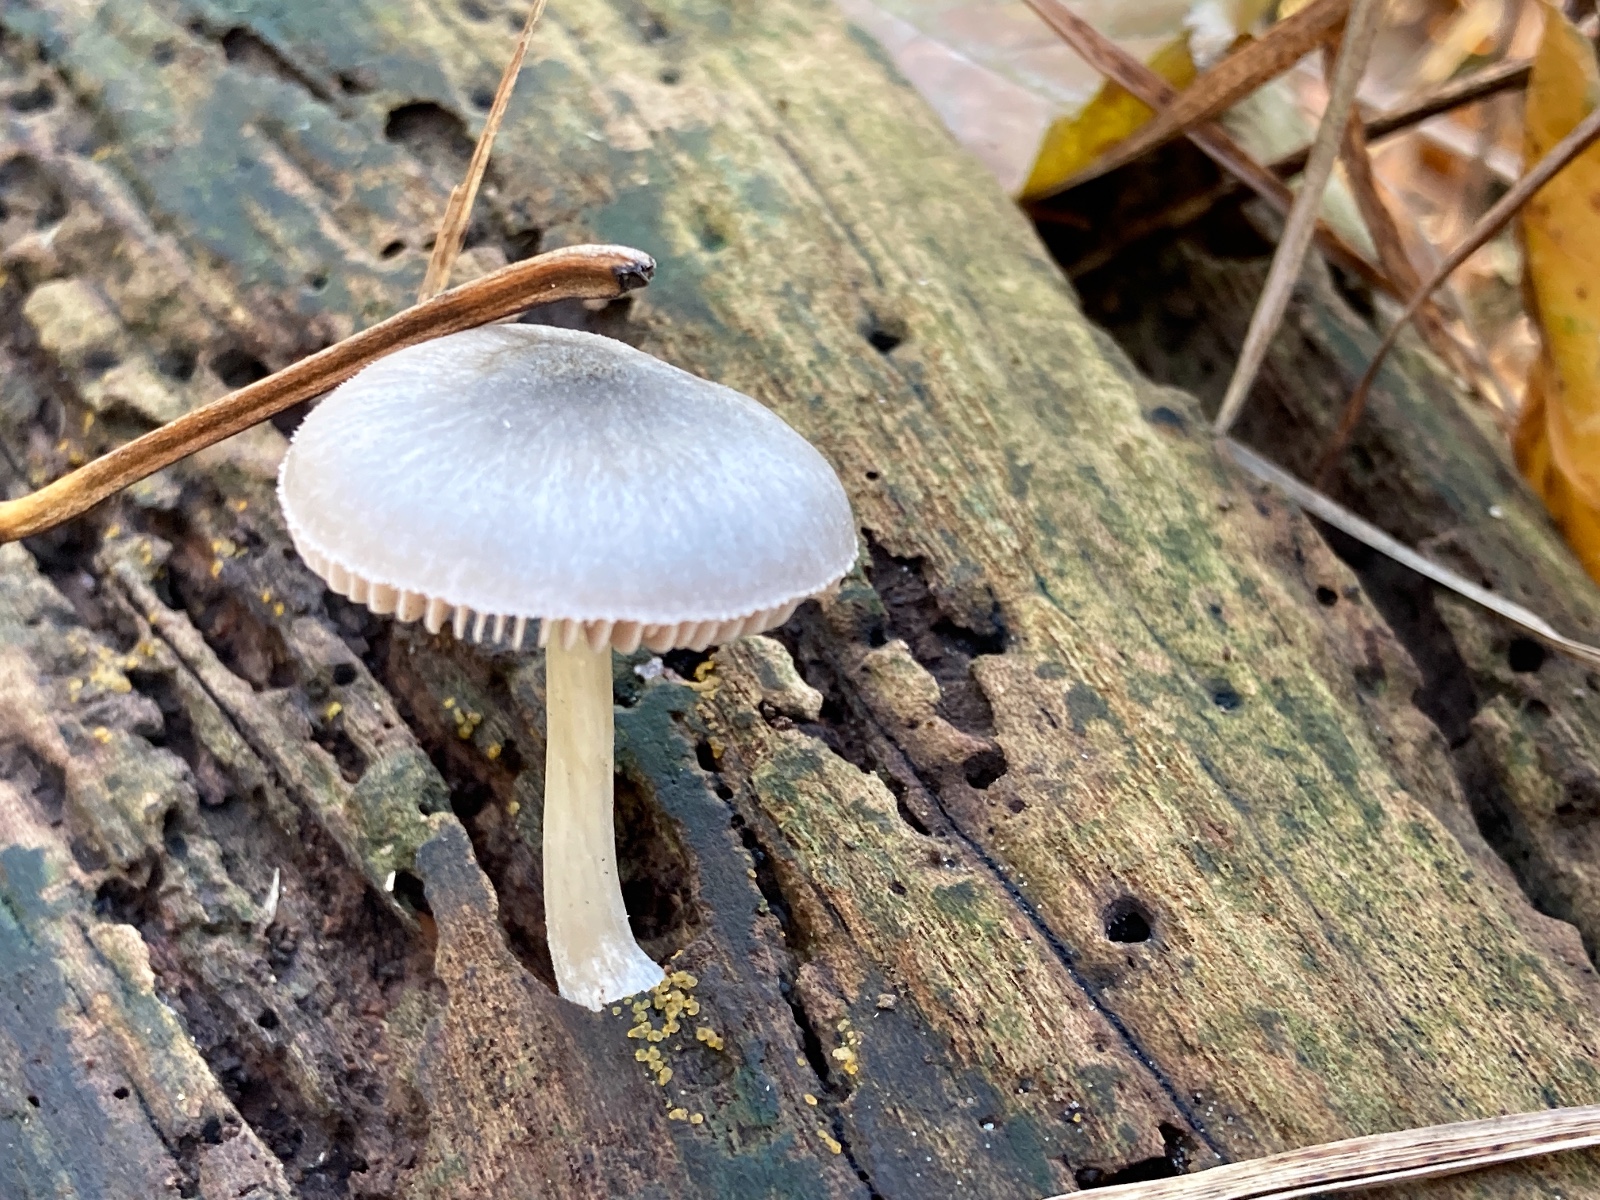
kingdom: Fungi
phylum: Basidiomycota
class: Agaricomycetes
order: Agaricales
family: Pluteaceae
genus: Pluteus
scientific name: Pluteus salicinus
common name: stiv skærmhat
